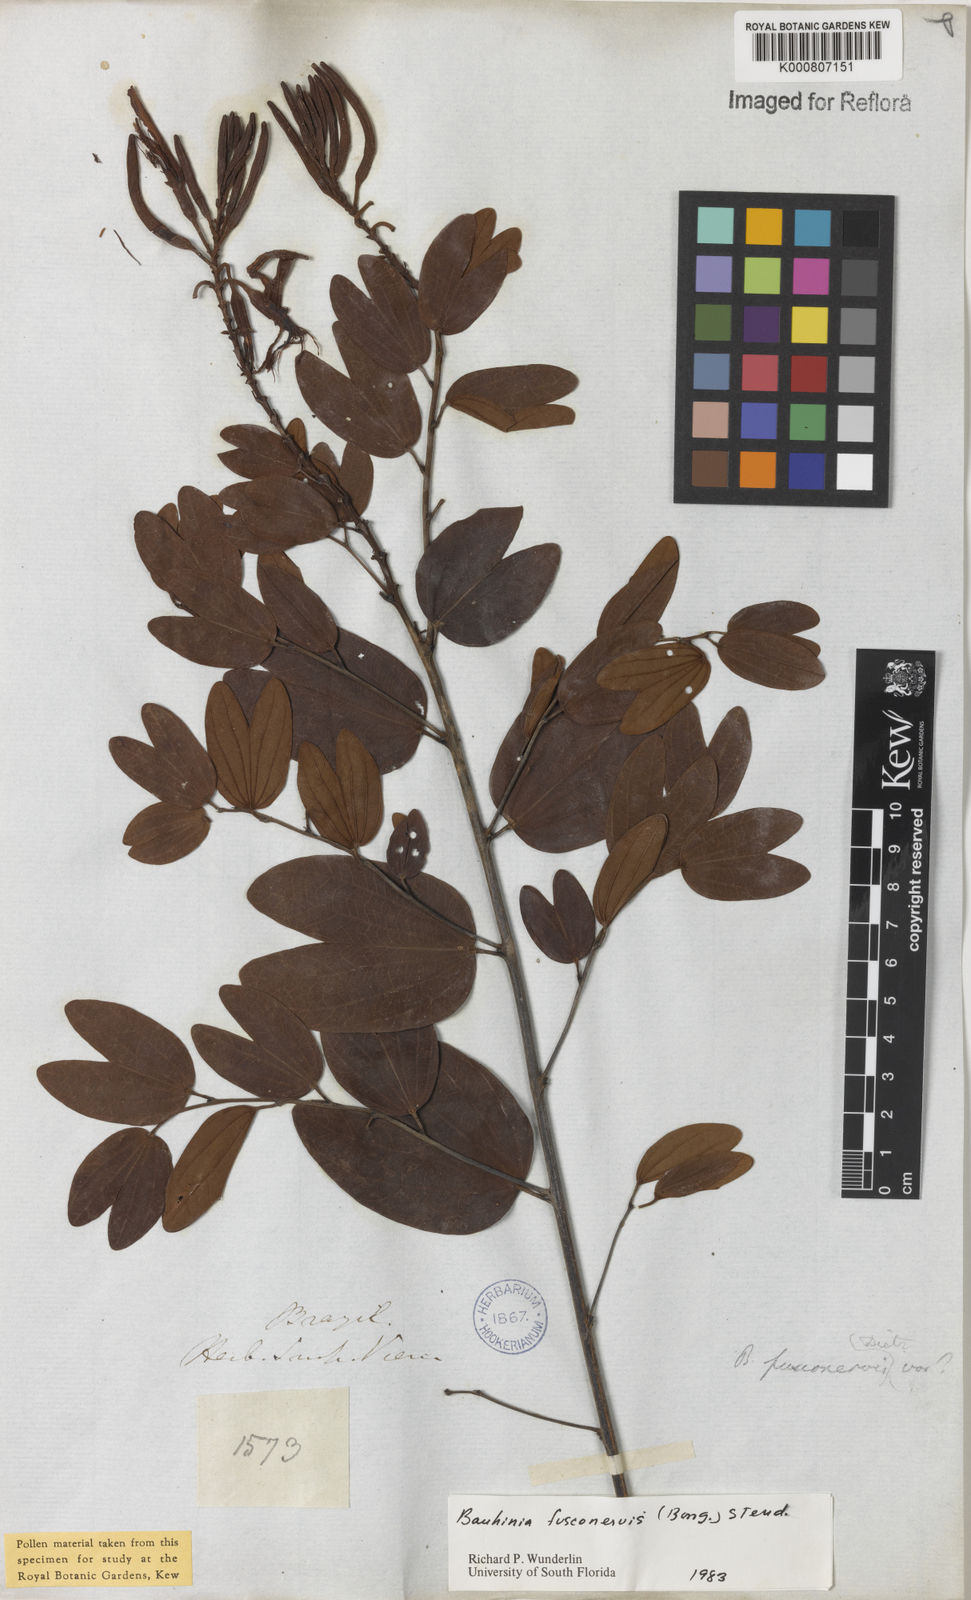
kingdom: Plantae
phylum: Tracheophyta
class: Magnoliopsida
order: Fabales
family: Fabaceae
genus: Bauhinia
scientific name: Bauhinia
